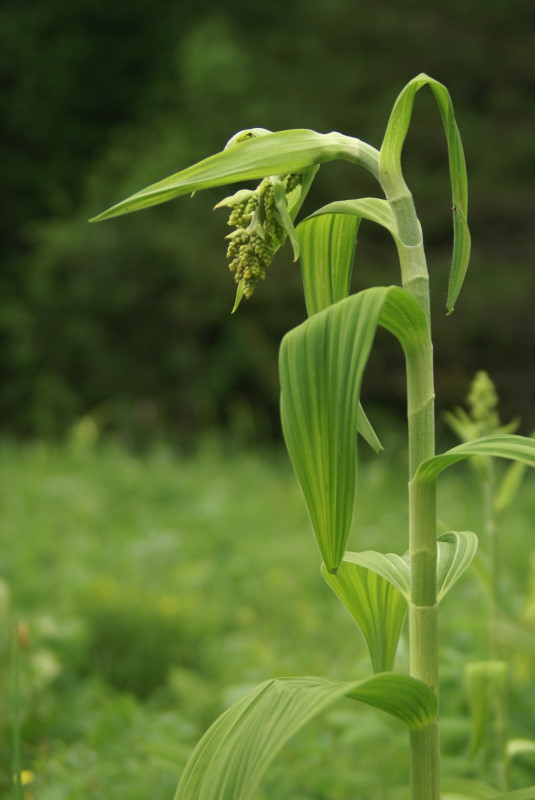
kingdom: Plantae
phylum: Tracheophyta
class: Liliopsida
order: Liliales
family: Melanthiaceae
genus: Veratrum
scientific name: Veratrum lobelianum
